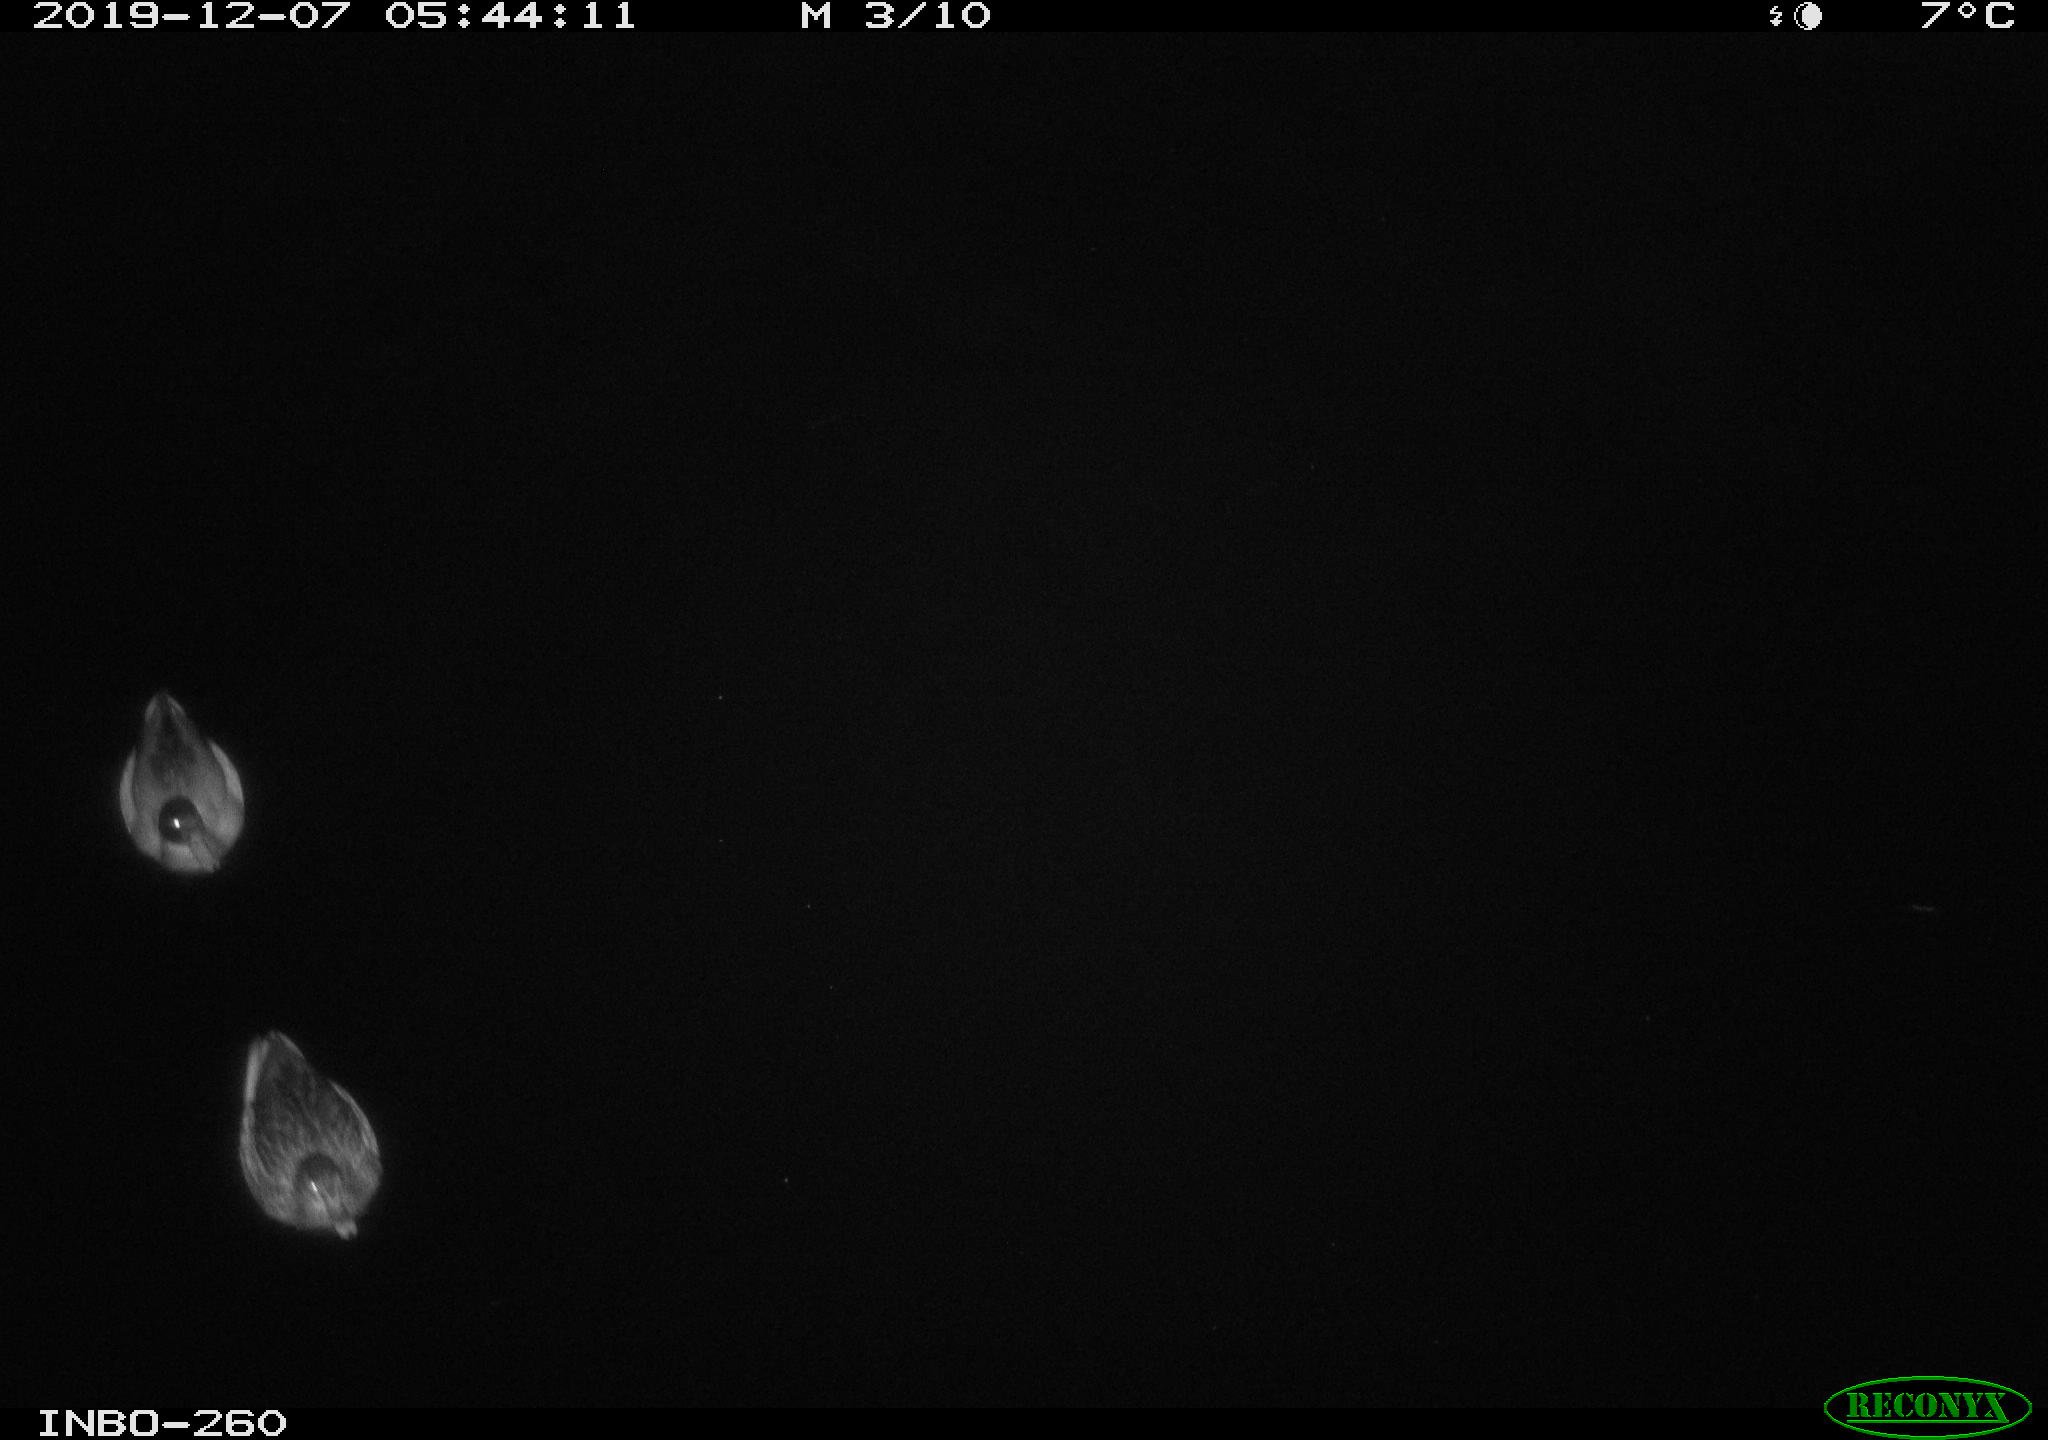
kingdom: Animalia
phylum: Chordata
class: Aves
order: Anseriformes
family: Anatidae
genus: Anas
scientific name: Anas platyrhynchos
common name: Mallard
